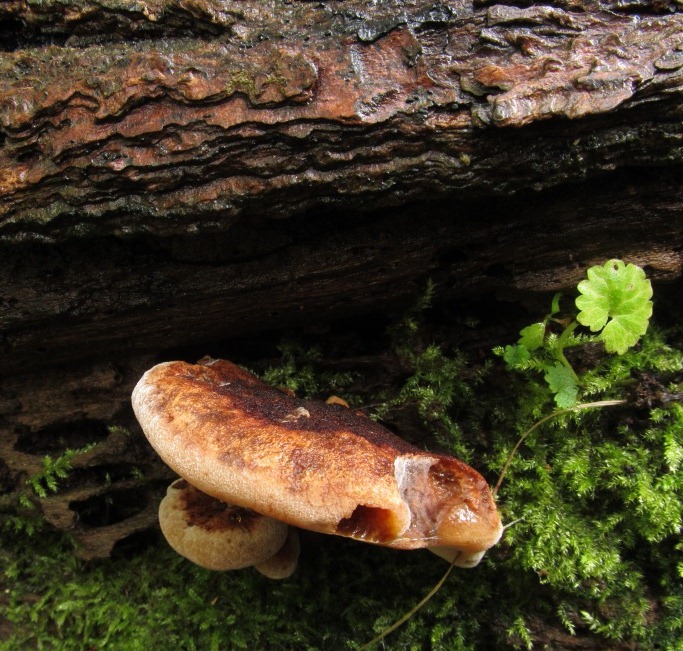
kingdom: Fungi
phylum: Basidiomycota
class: Agaricomycetes
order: Hymenochaetales
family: Hymenochaetaceae
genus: Inonotus
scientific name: Inonotus hispidus
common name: børstehåret spejlporesvamp
